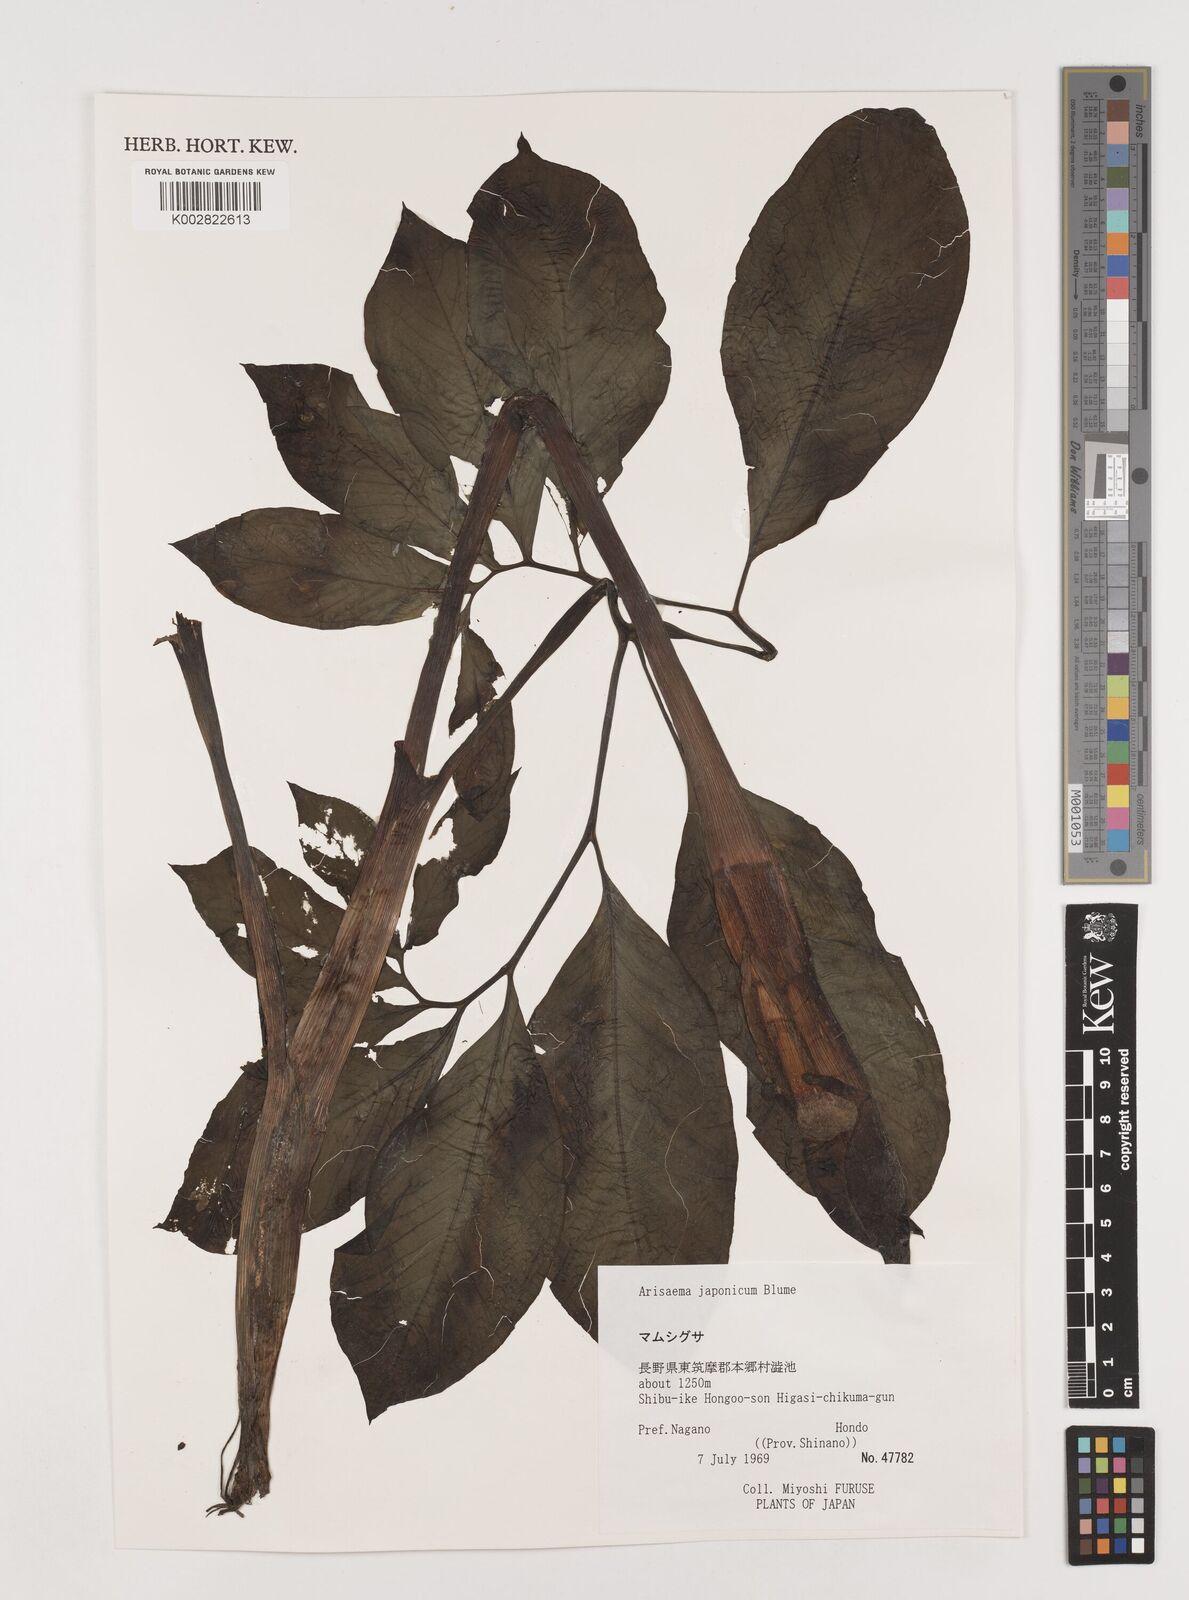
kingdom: Plantae
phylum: Tracheophyta
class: Liliopsida
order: Alismatales
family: Araceae
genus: Arisaema
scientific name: Arisaema serratum
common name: Japanese arisaema
